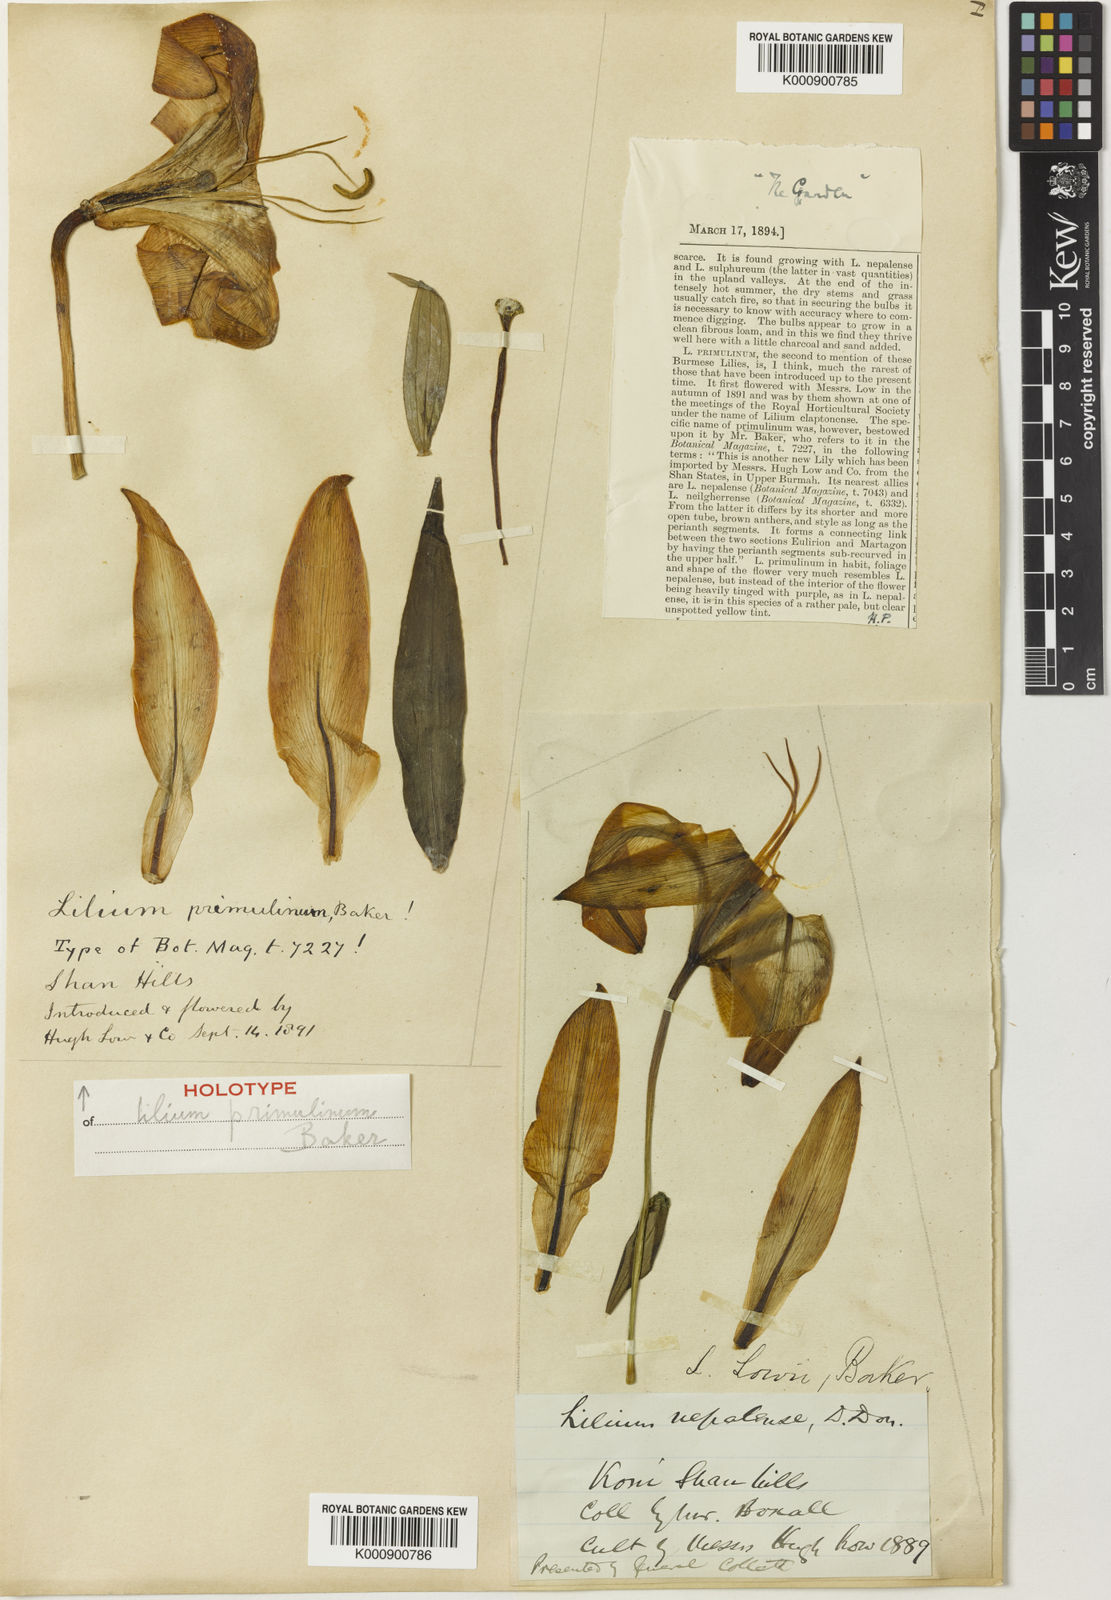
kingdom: Plantae
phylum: Tracheophyta
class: Liliopsida
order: Liliales
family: Liliaceae
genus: Lilium
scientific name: Lilium primulinum
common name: Ochre lily
